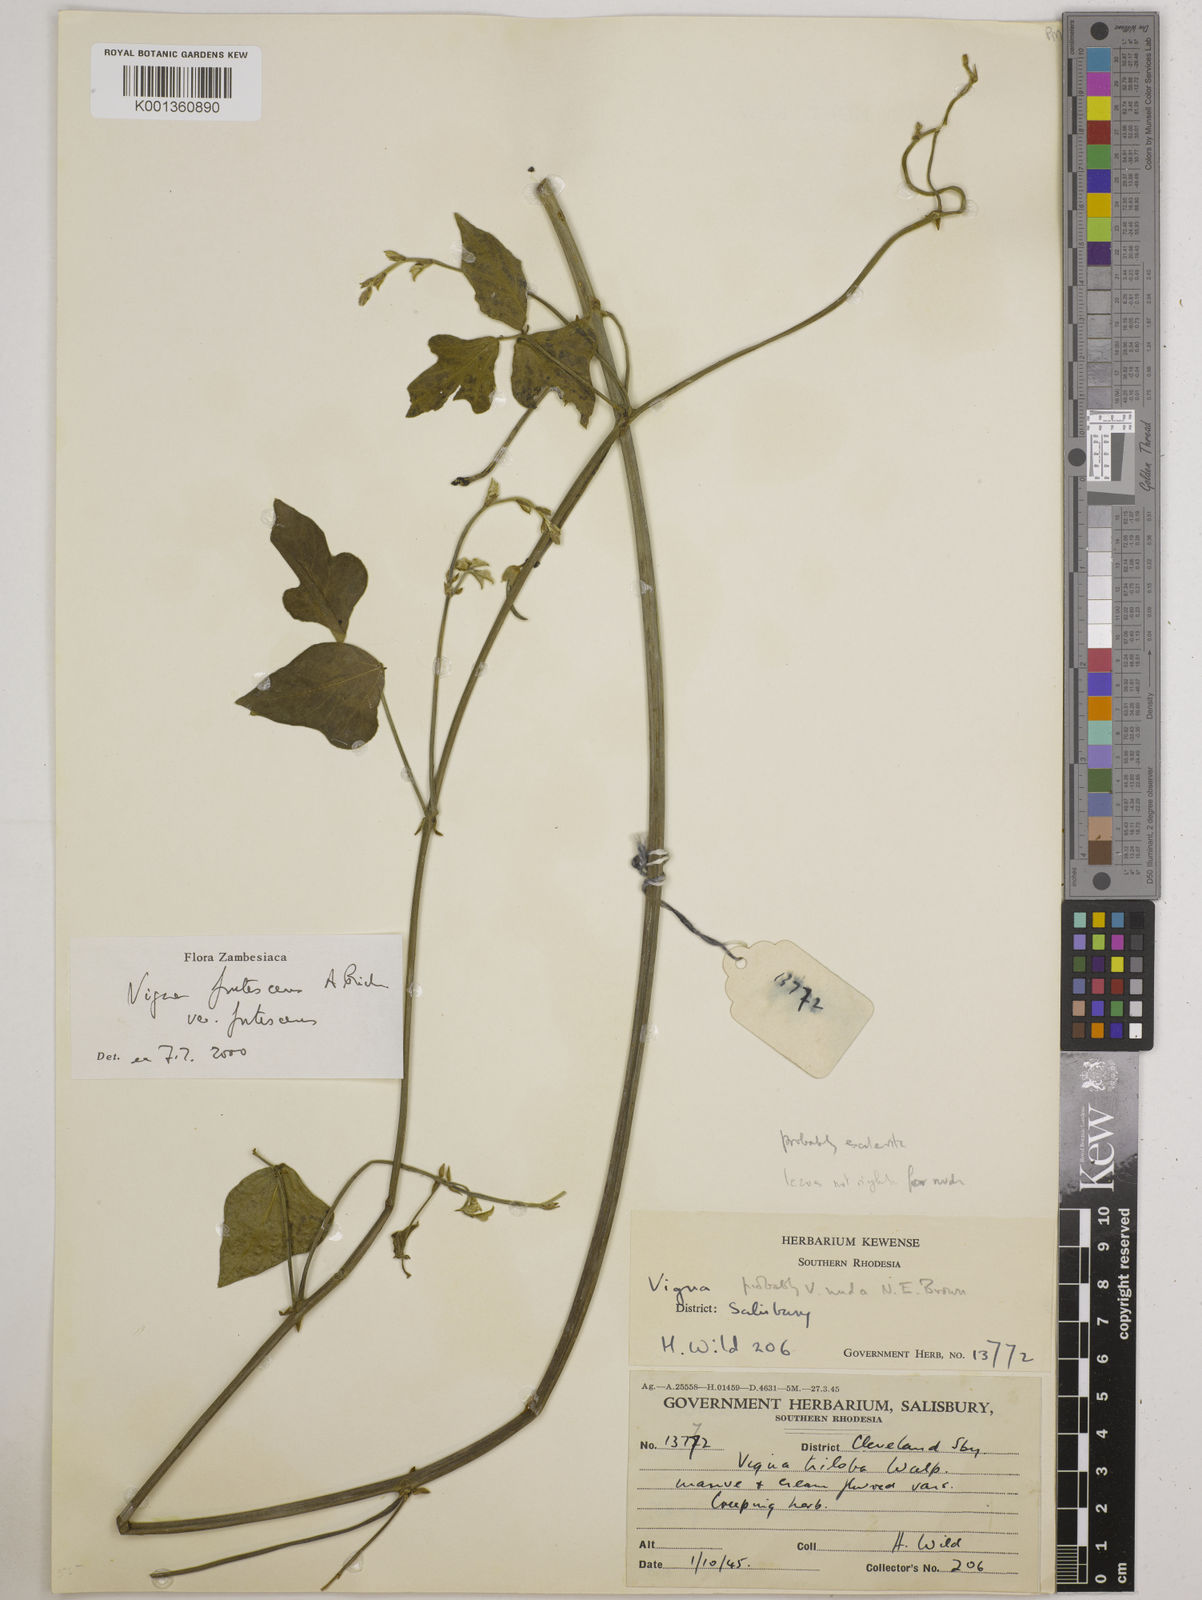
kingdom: Plantae
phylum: Tracheophyta
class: Magnoliopsida
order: Fabales
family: Fabaceae
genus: Vigna
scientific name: Vigna
